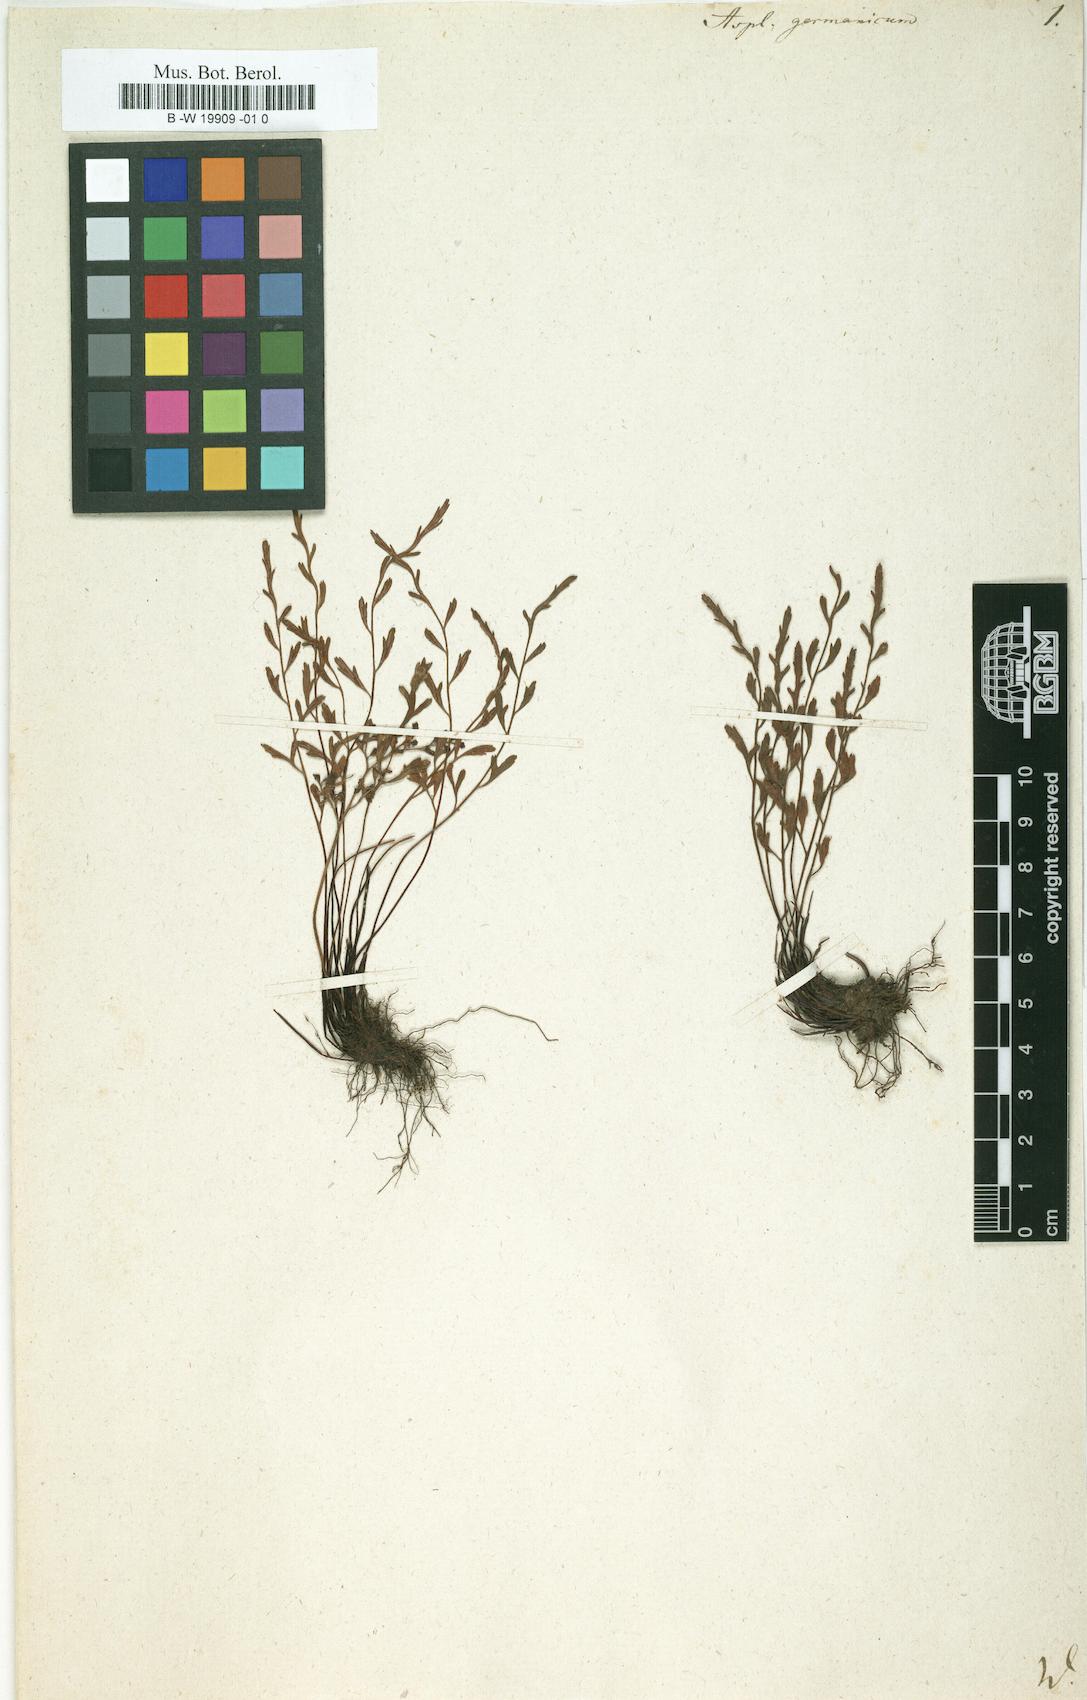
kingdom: Plantae
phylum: Tracheophyta
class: Polypodiopsida
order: Polypodiales
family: Aspleniaceae
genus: Asplenium
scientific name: Asplenium
